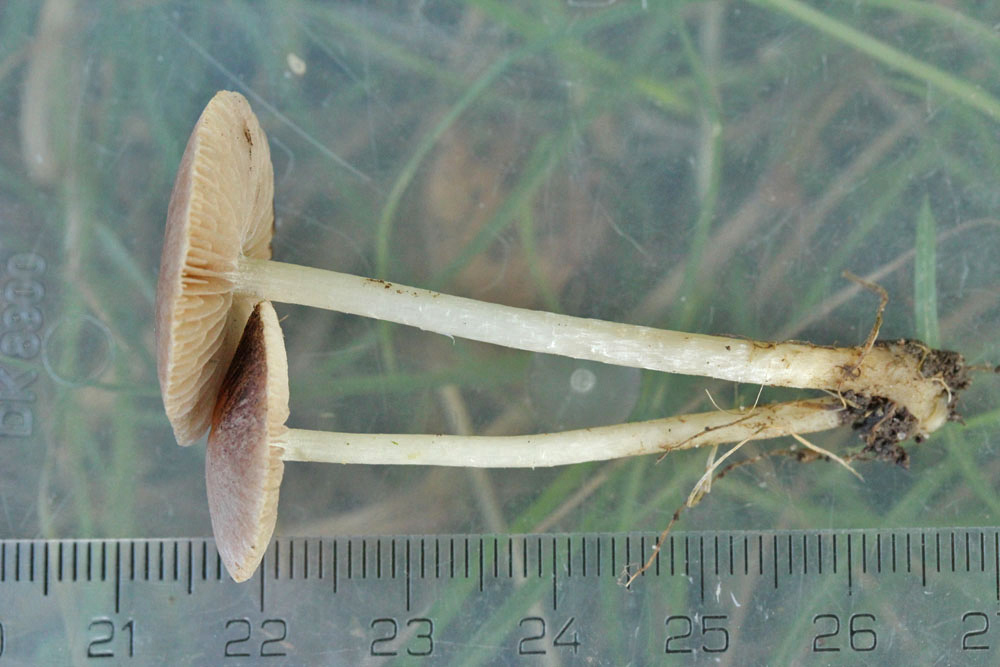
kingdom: Fungi
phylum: Basidiomycota
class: Agaricomycetes
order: Agaricales
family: Psathyrellaceae
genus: Psathyrella
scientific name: Psathyrella rubiginosa
